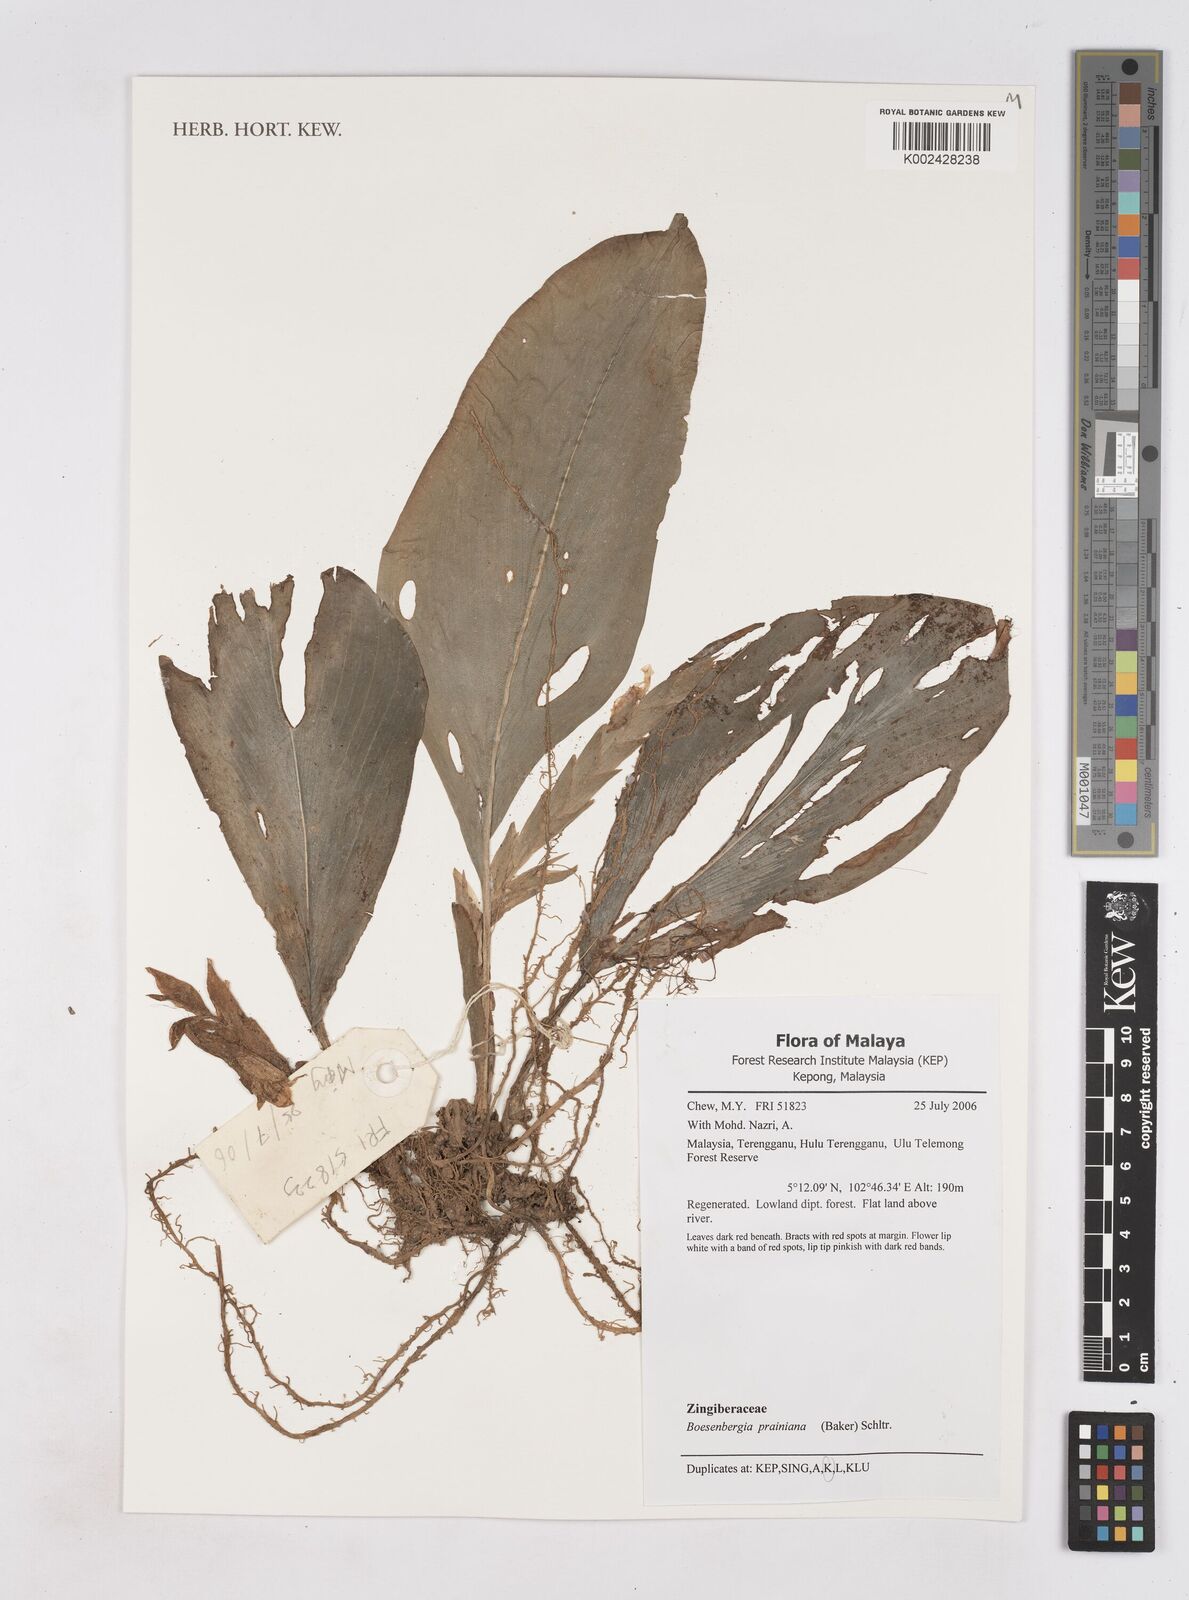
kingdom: Plantae
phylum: Tracheophyta
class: Liliopsida
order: Zingiberales
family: Zingiberaceae
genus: Boesenbergia
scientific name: Boesenbergia prainiana
